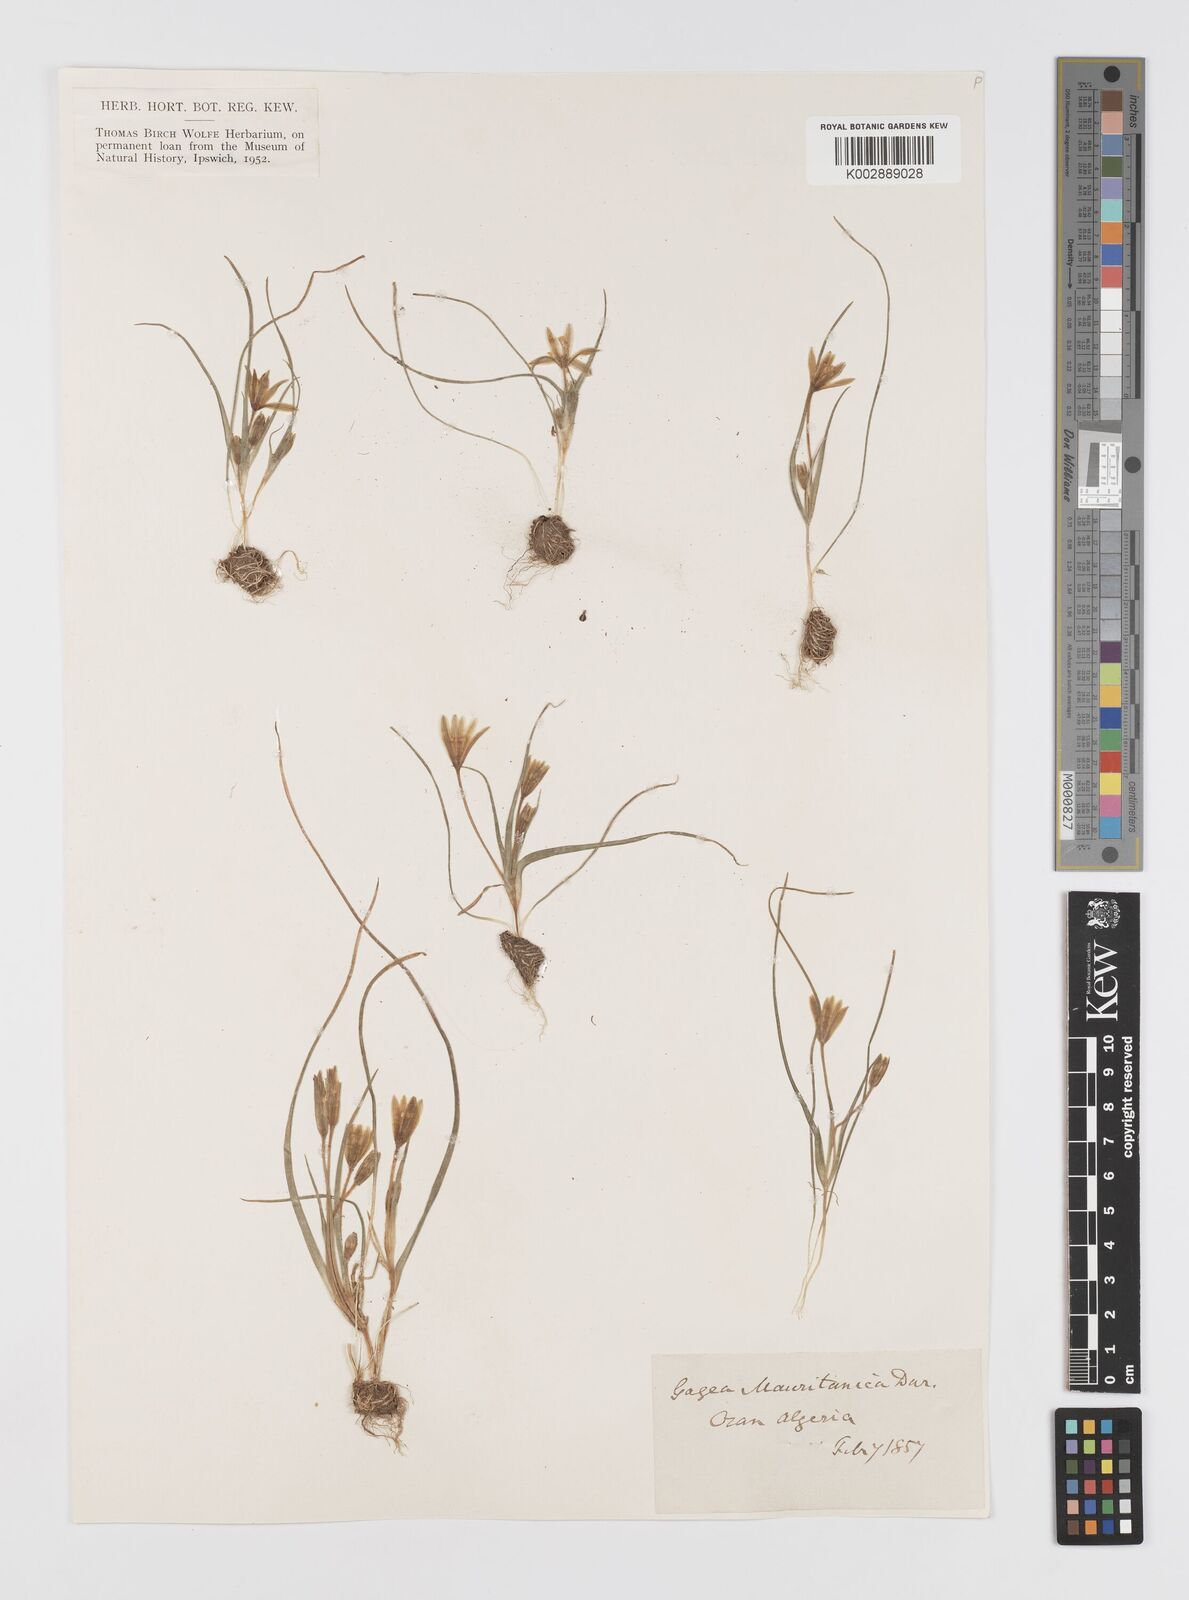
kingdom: Plantae
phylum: Tracheophyta
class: Liliopsida
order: Liliales
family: Liliaceae
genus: Gagea
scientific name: Gagea mauritanica
